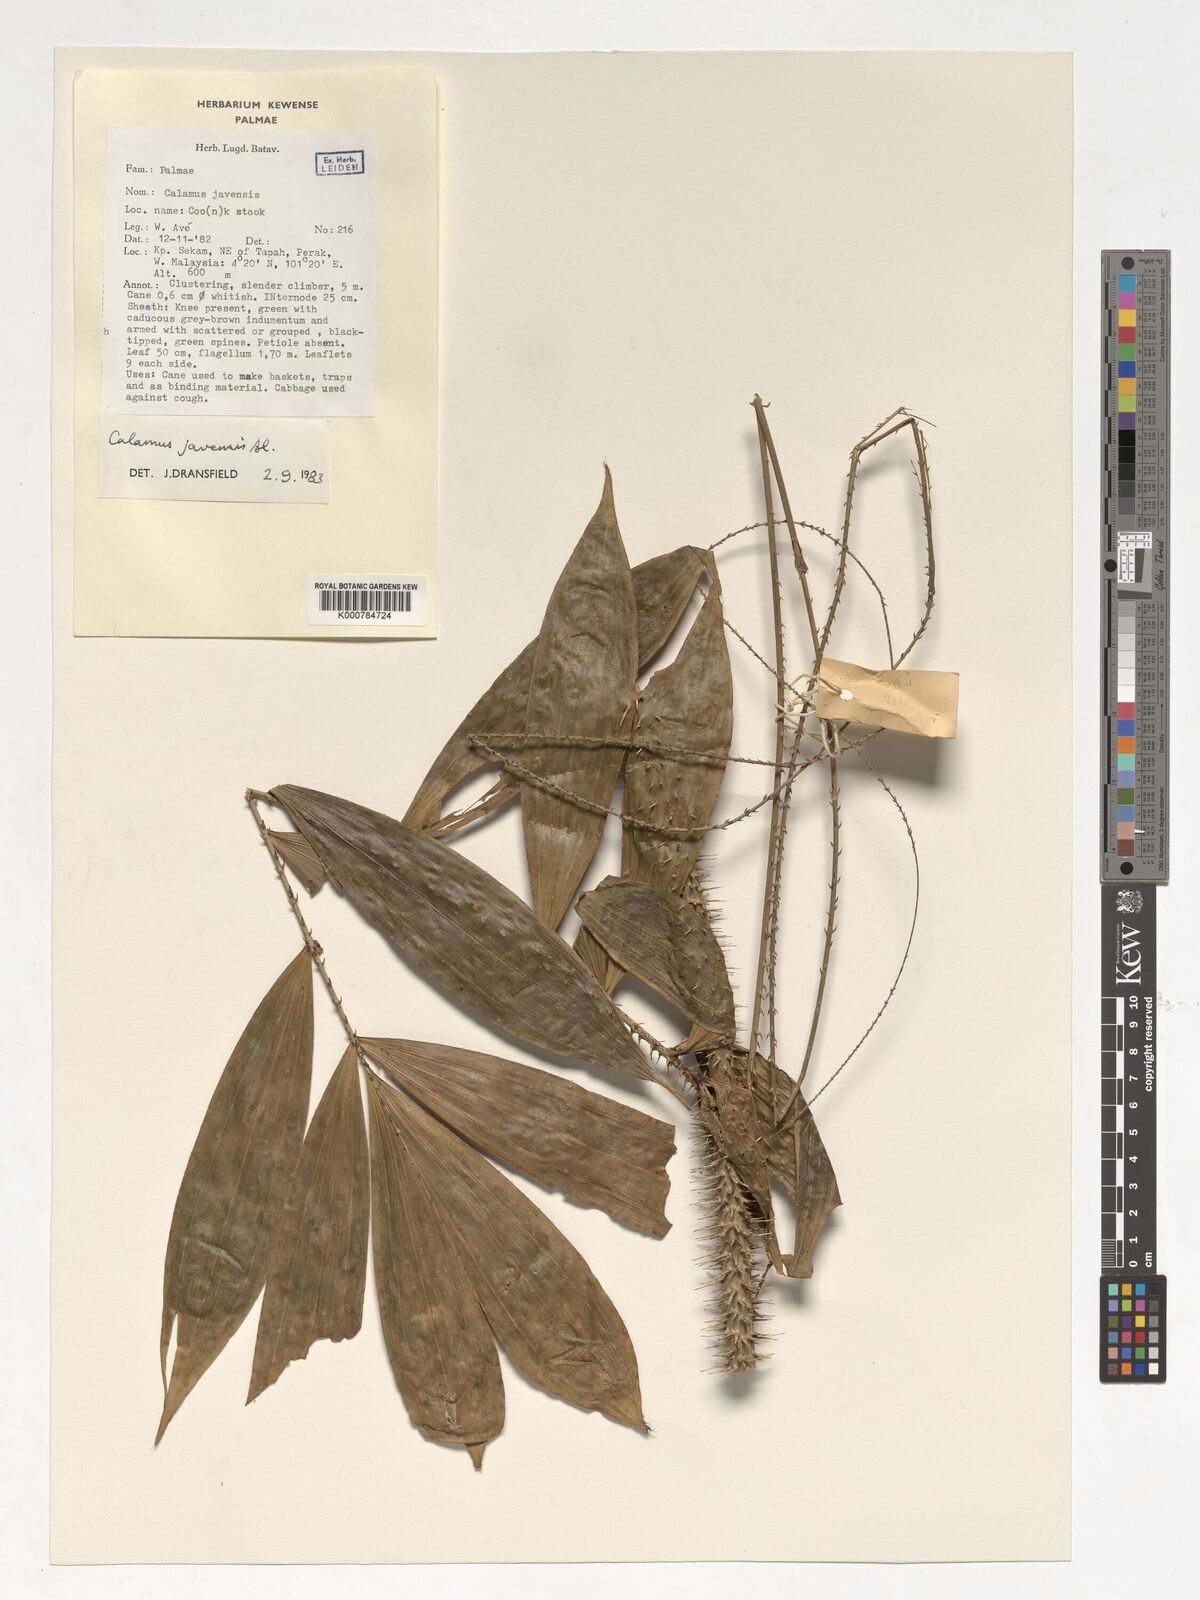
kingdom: Plantae
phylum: Tracheophyta
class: Liliopsida
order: Arecales
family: Arecaceae
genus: Calamus
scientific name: Calamus javensis
